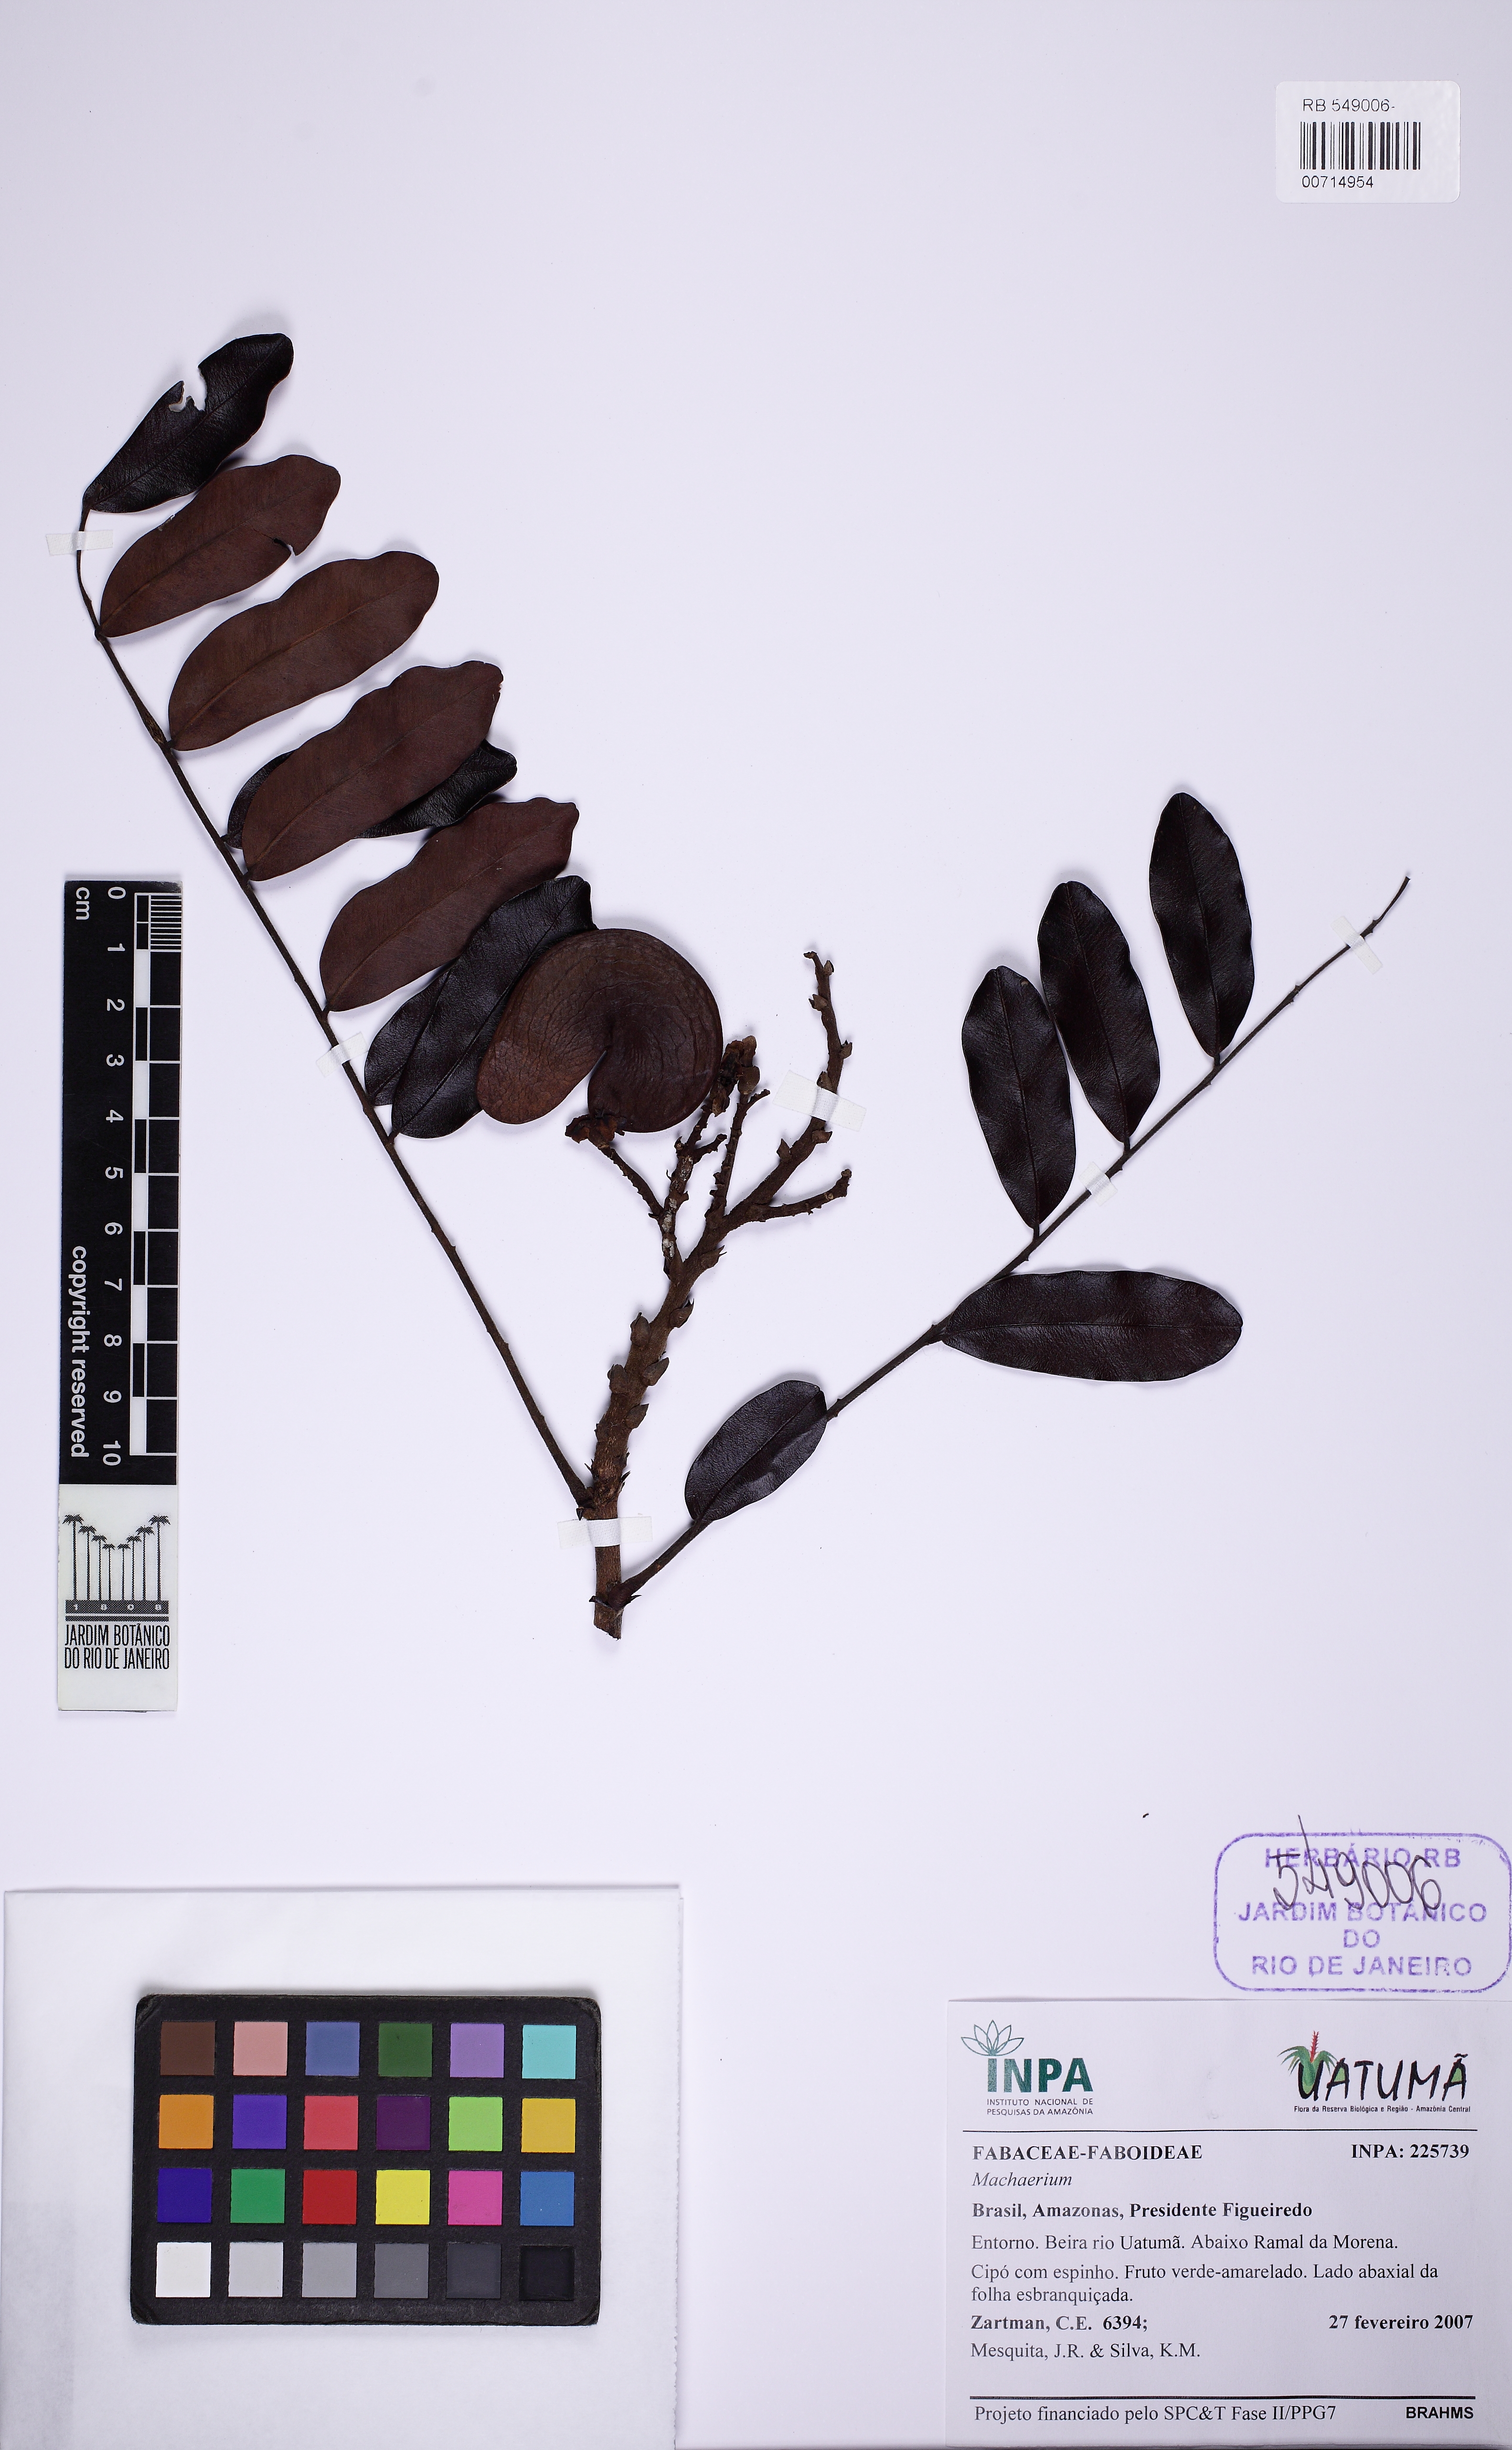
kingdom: Plantae
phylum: Tracheophyta
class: Magnoliopsida
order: Fabales
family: Fabaceae
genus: Machaerium
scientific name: Machaerium
